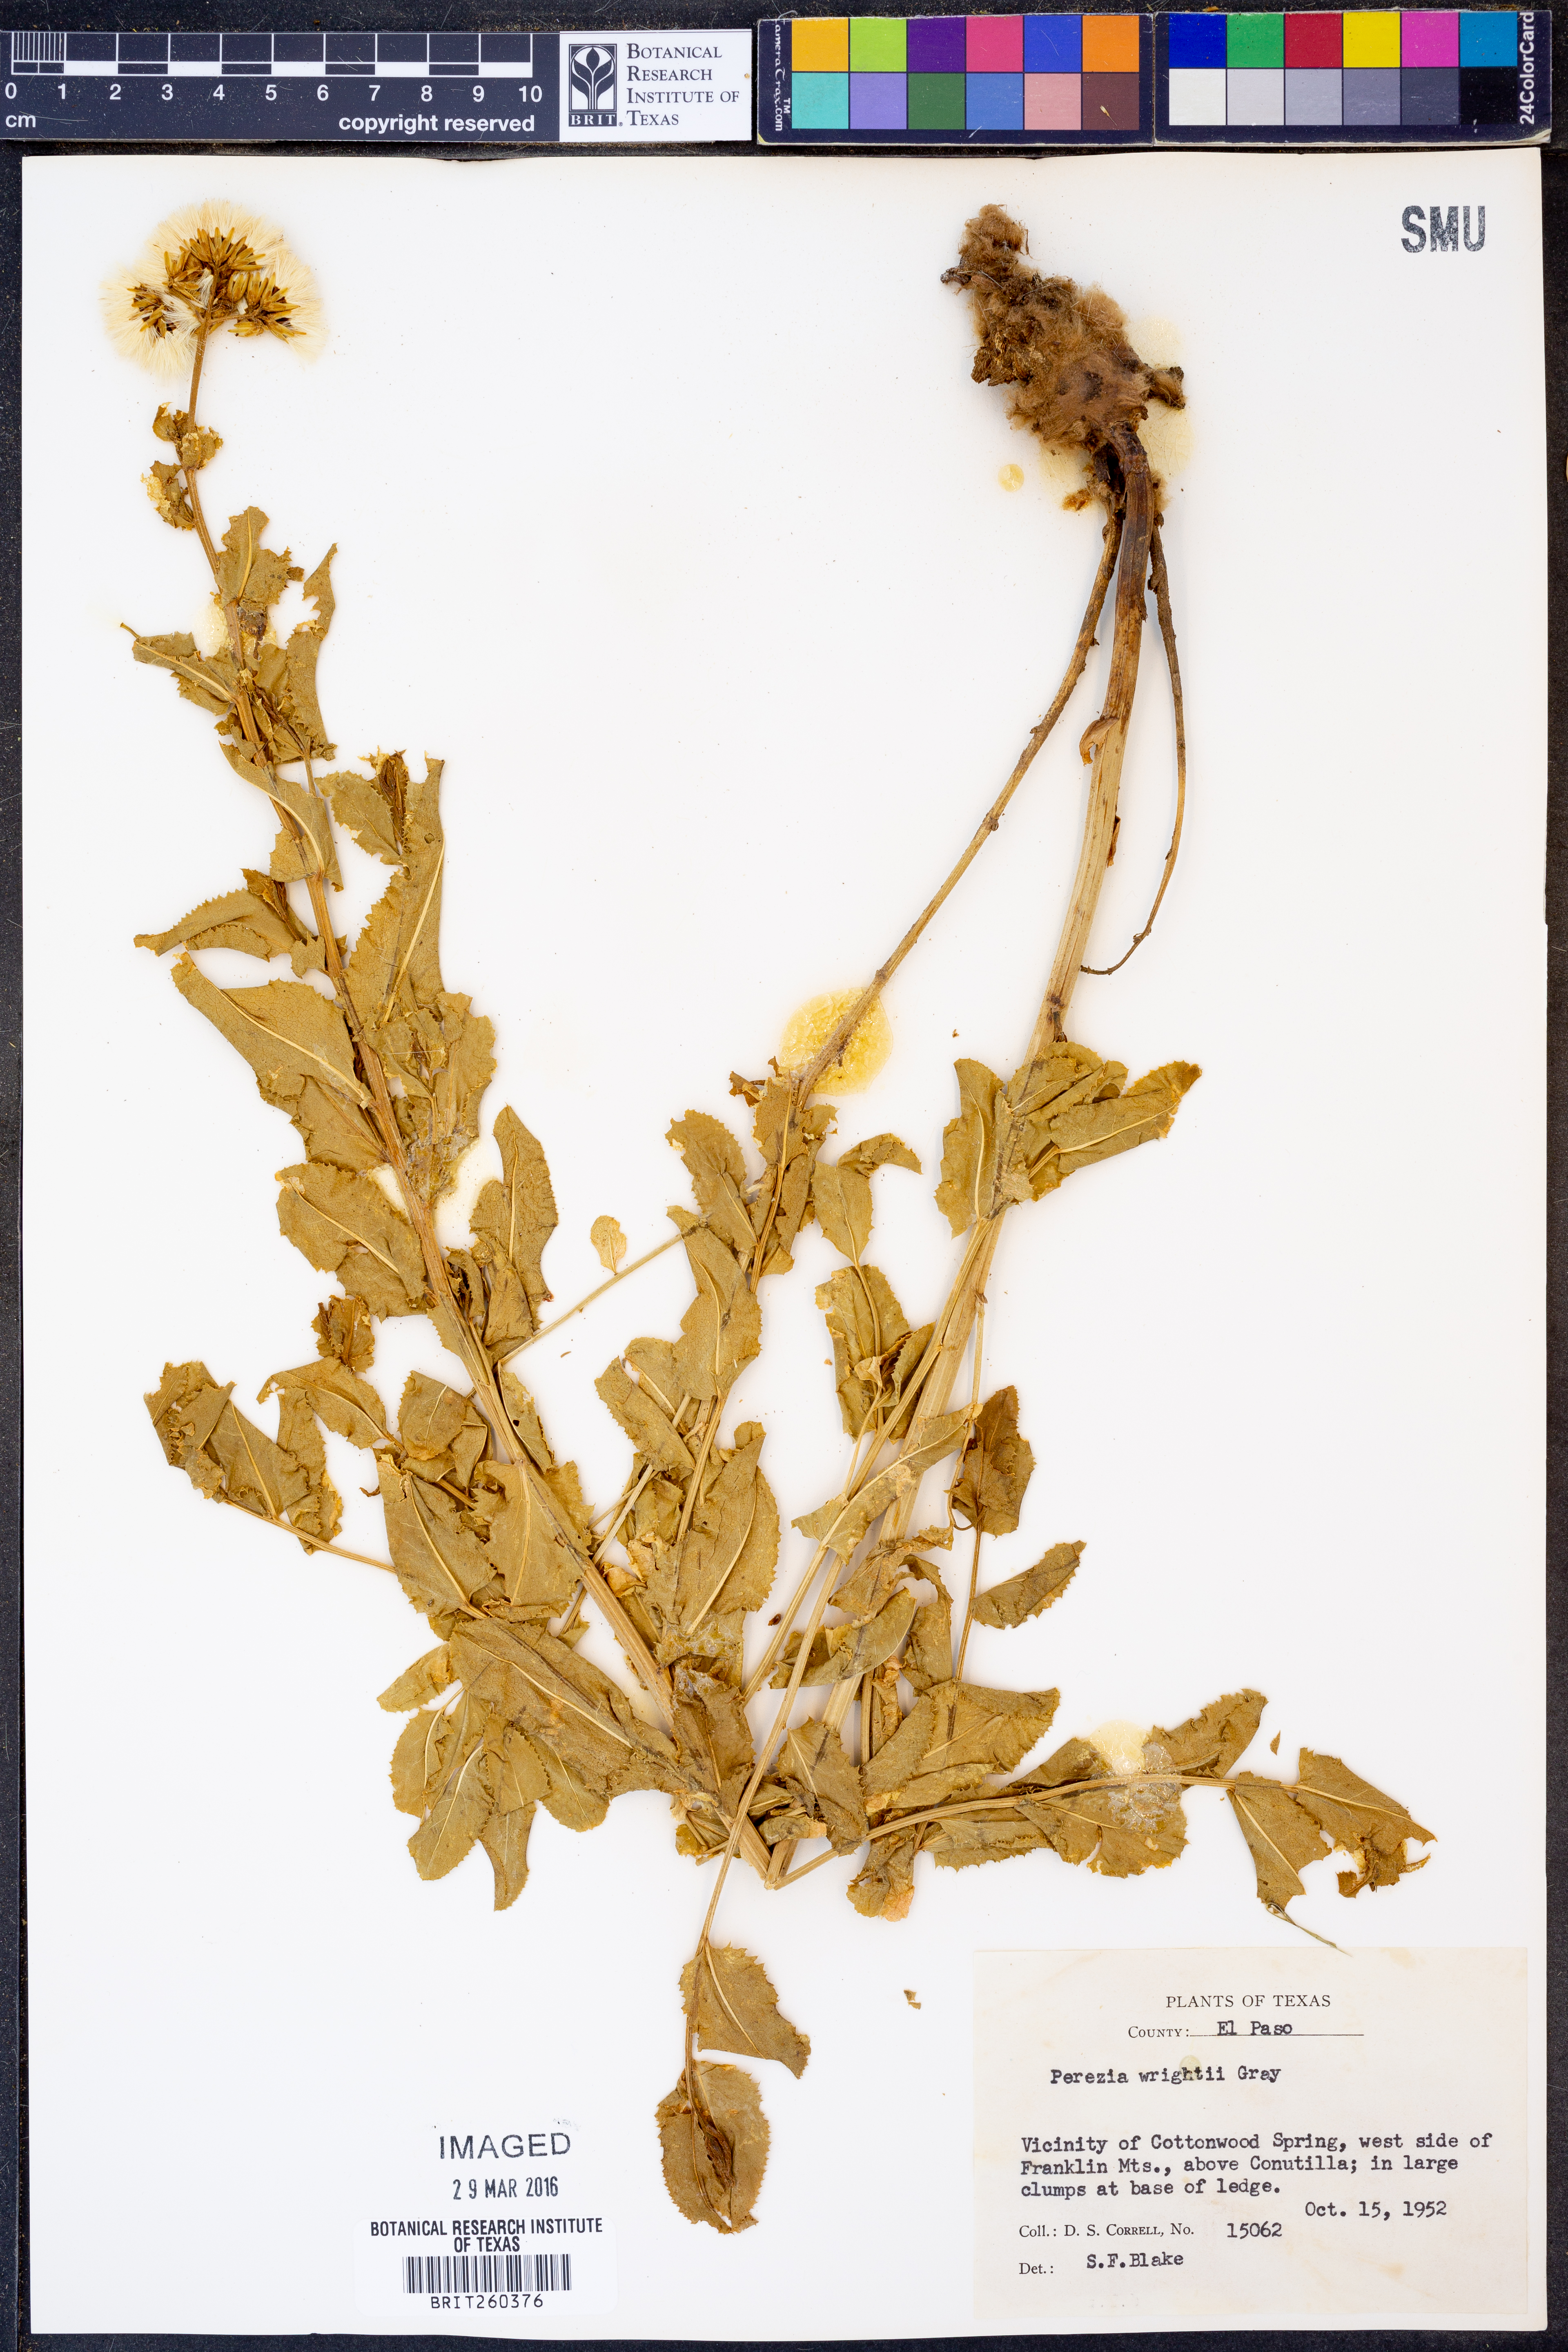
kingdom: Plantae
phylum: Tracheophyta
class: Magnoliopsida
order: Asterales
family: Asteraceae
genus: Acourtia
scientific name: Acourtia wrightii
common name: Brownfoot
